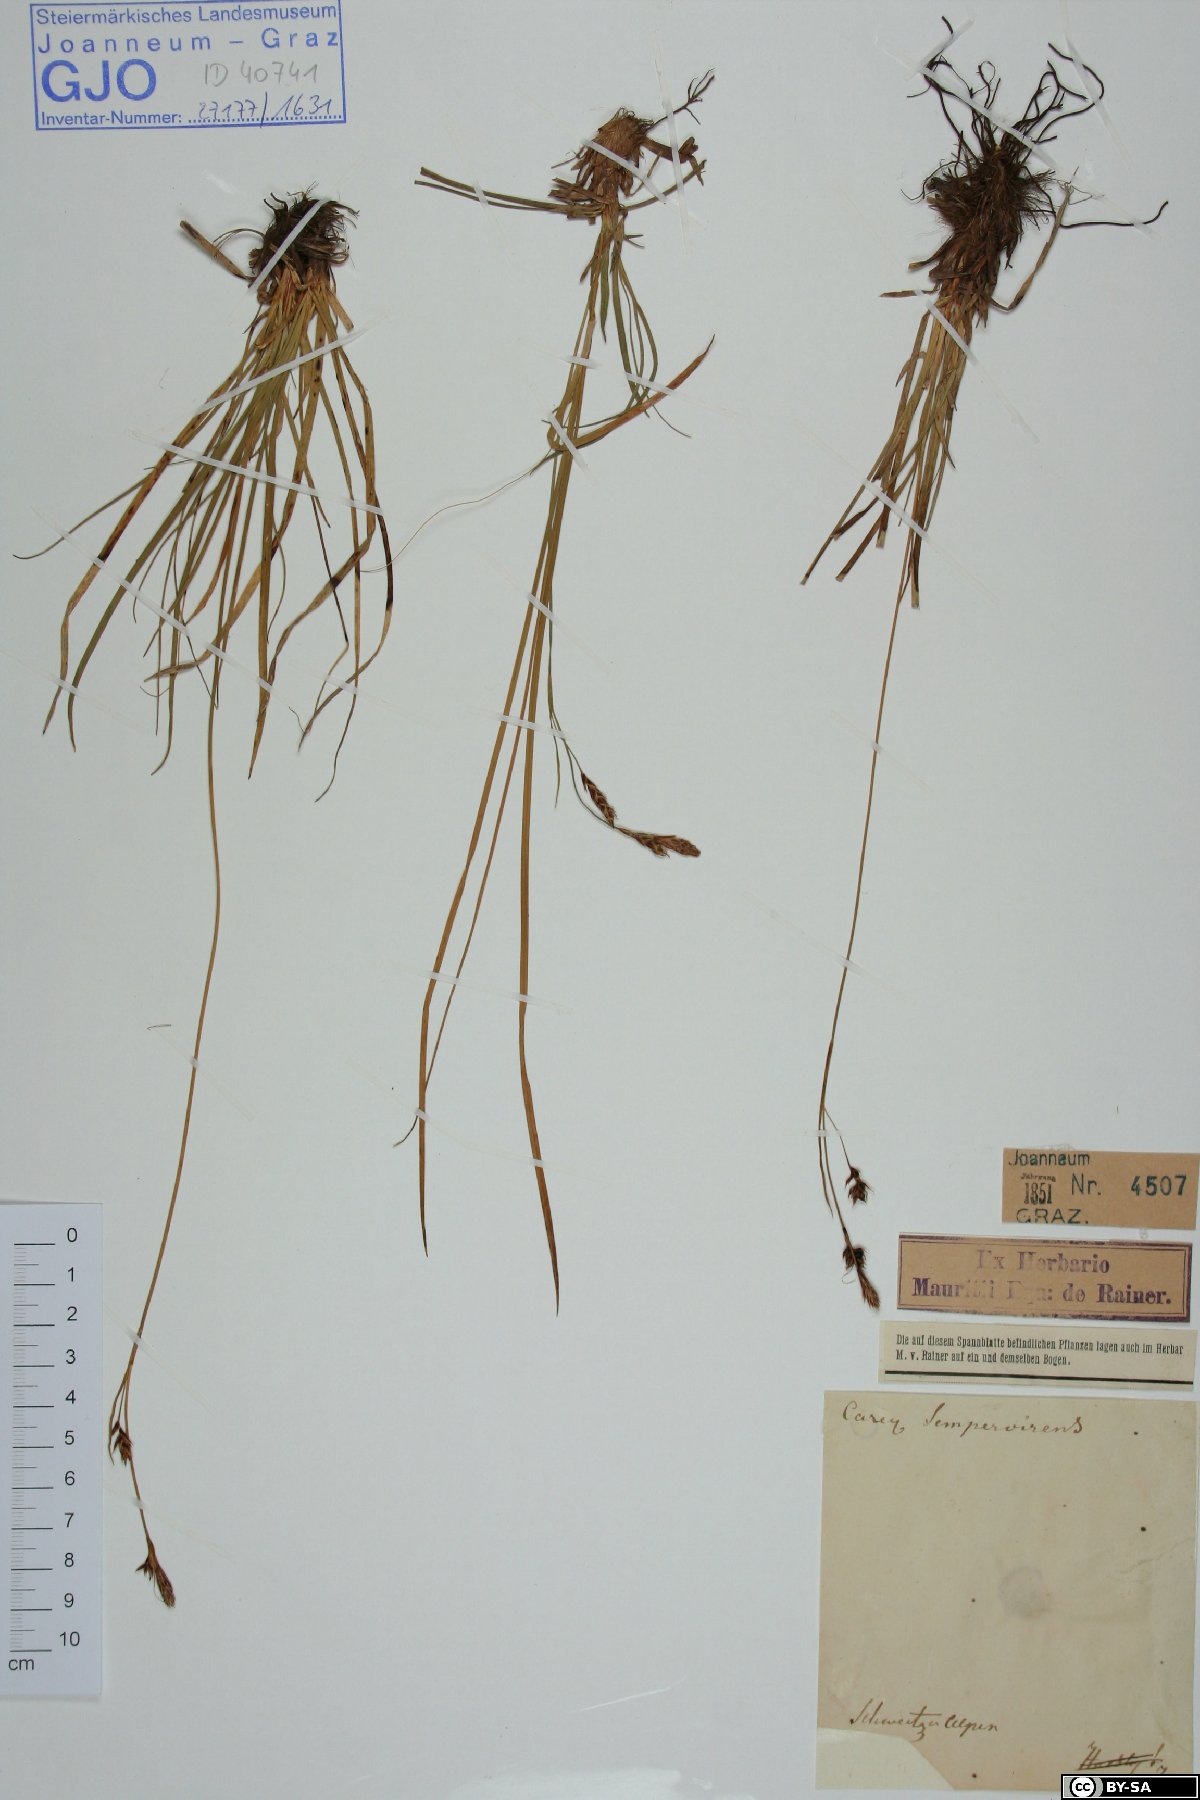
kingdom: Plantae
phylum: Tracheophyta
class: Liliopsida
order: Poales
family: Cyperaceae
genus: Carex
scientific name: Carex sempervirens
